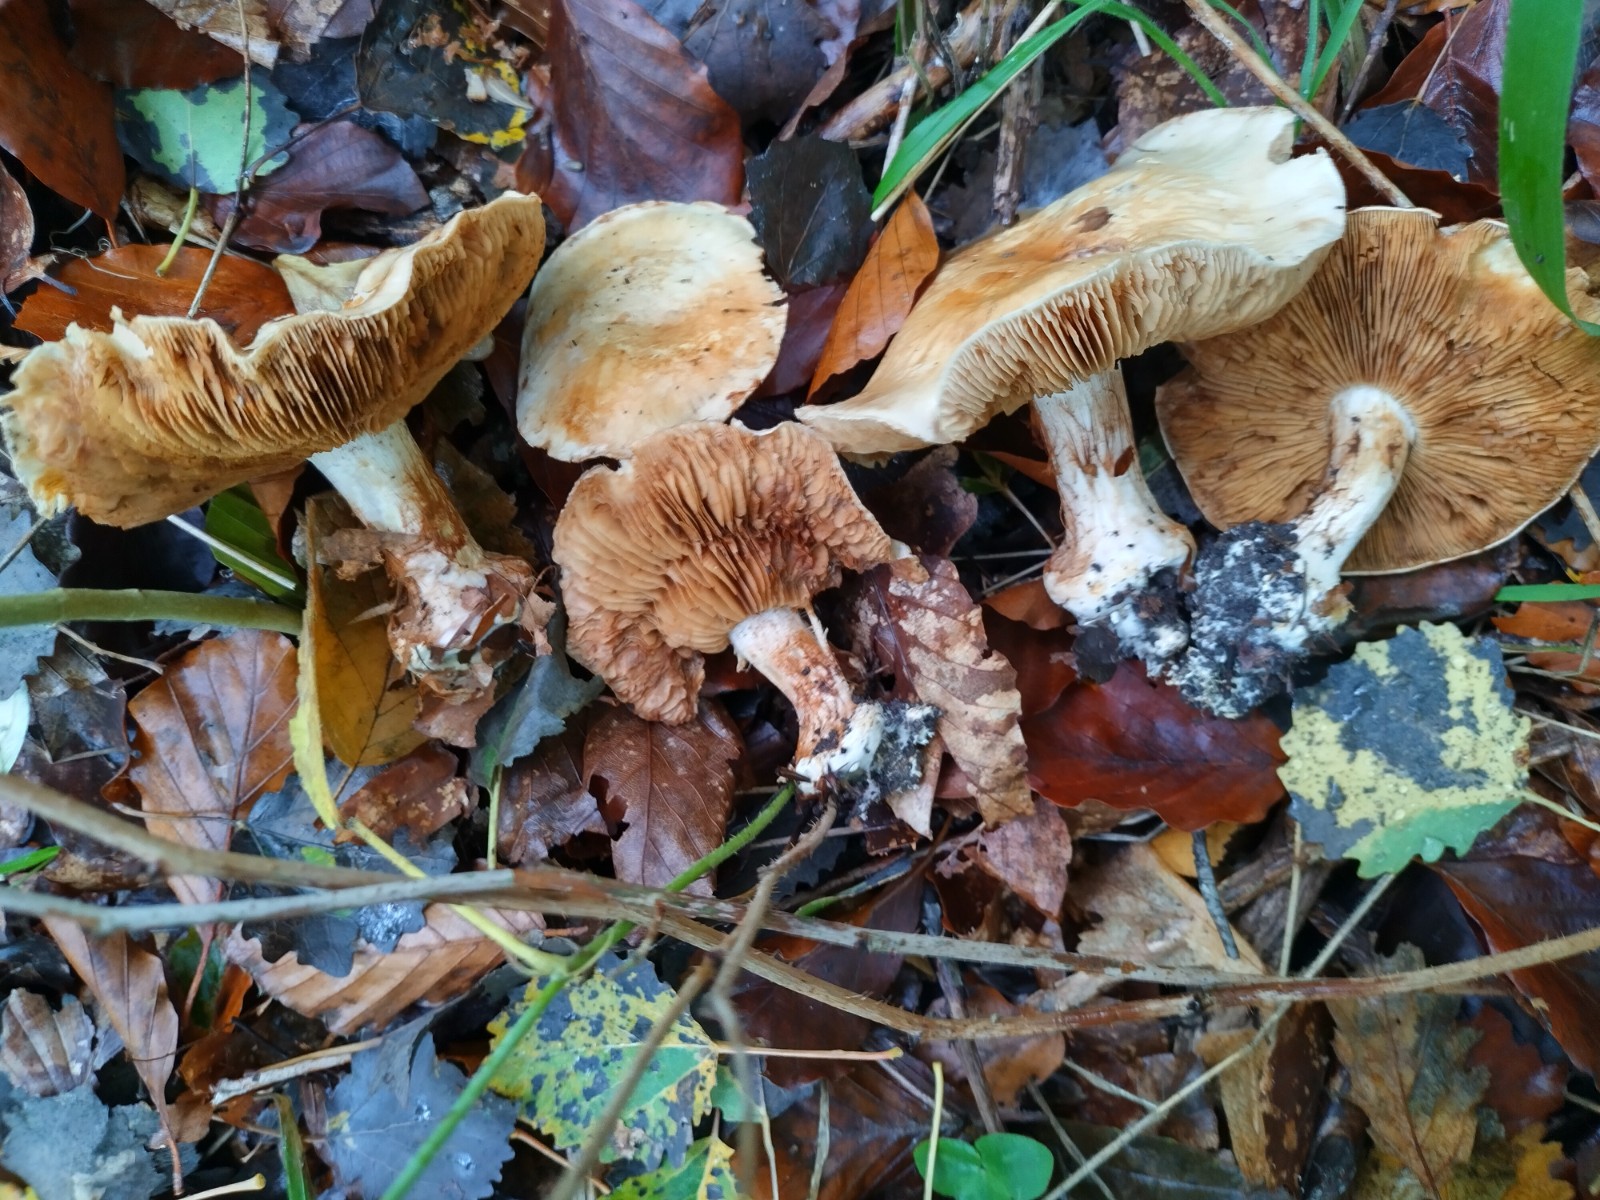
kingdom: Fungi
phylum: Basidiomycota
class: Agaricomycetes
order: Agaricales
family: Cortinariaceae
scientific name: Cortinariaceae
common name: slørhatfamilien
